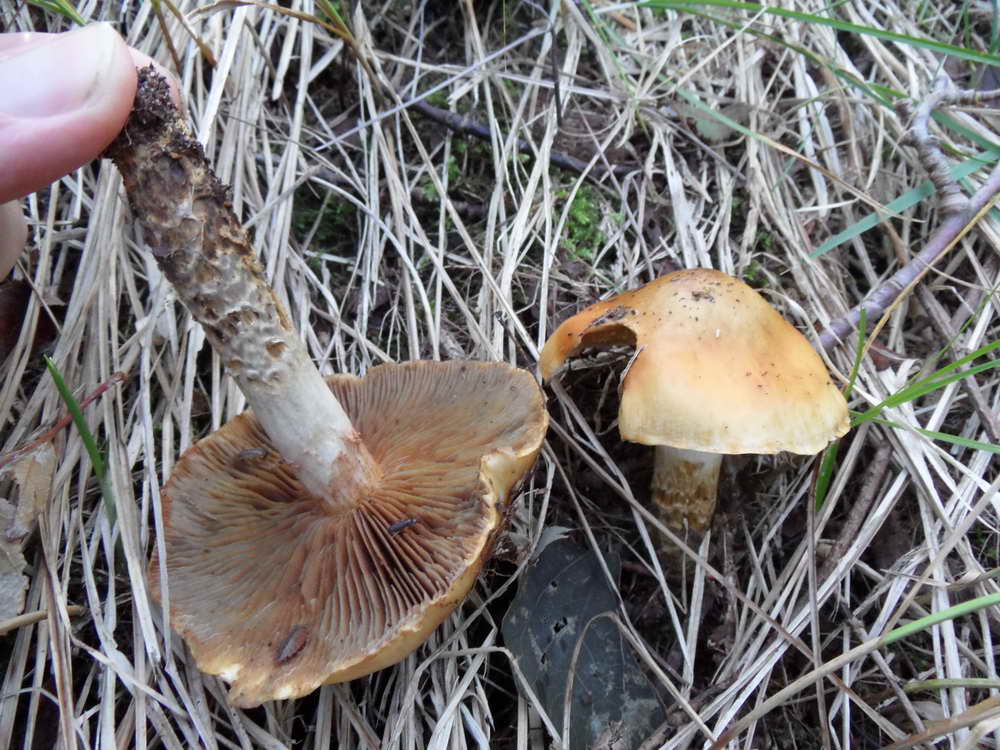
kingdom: Fungi
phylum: Basidiomycota
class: Agaricomycetes
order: Agaricales
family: Cortinariaceae
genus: Cortinarius
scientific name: Cortinarius trivialis
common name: brunslimet slørhat
